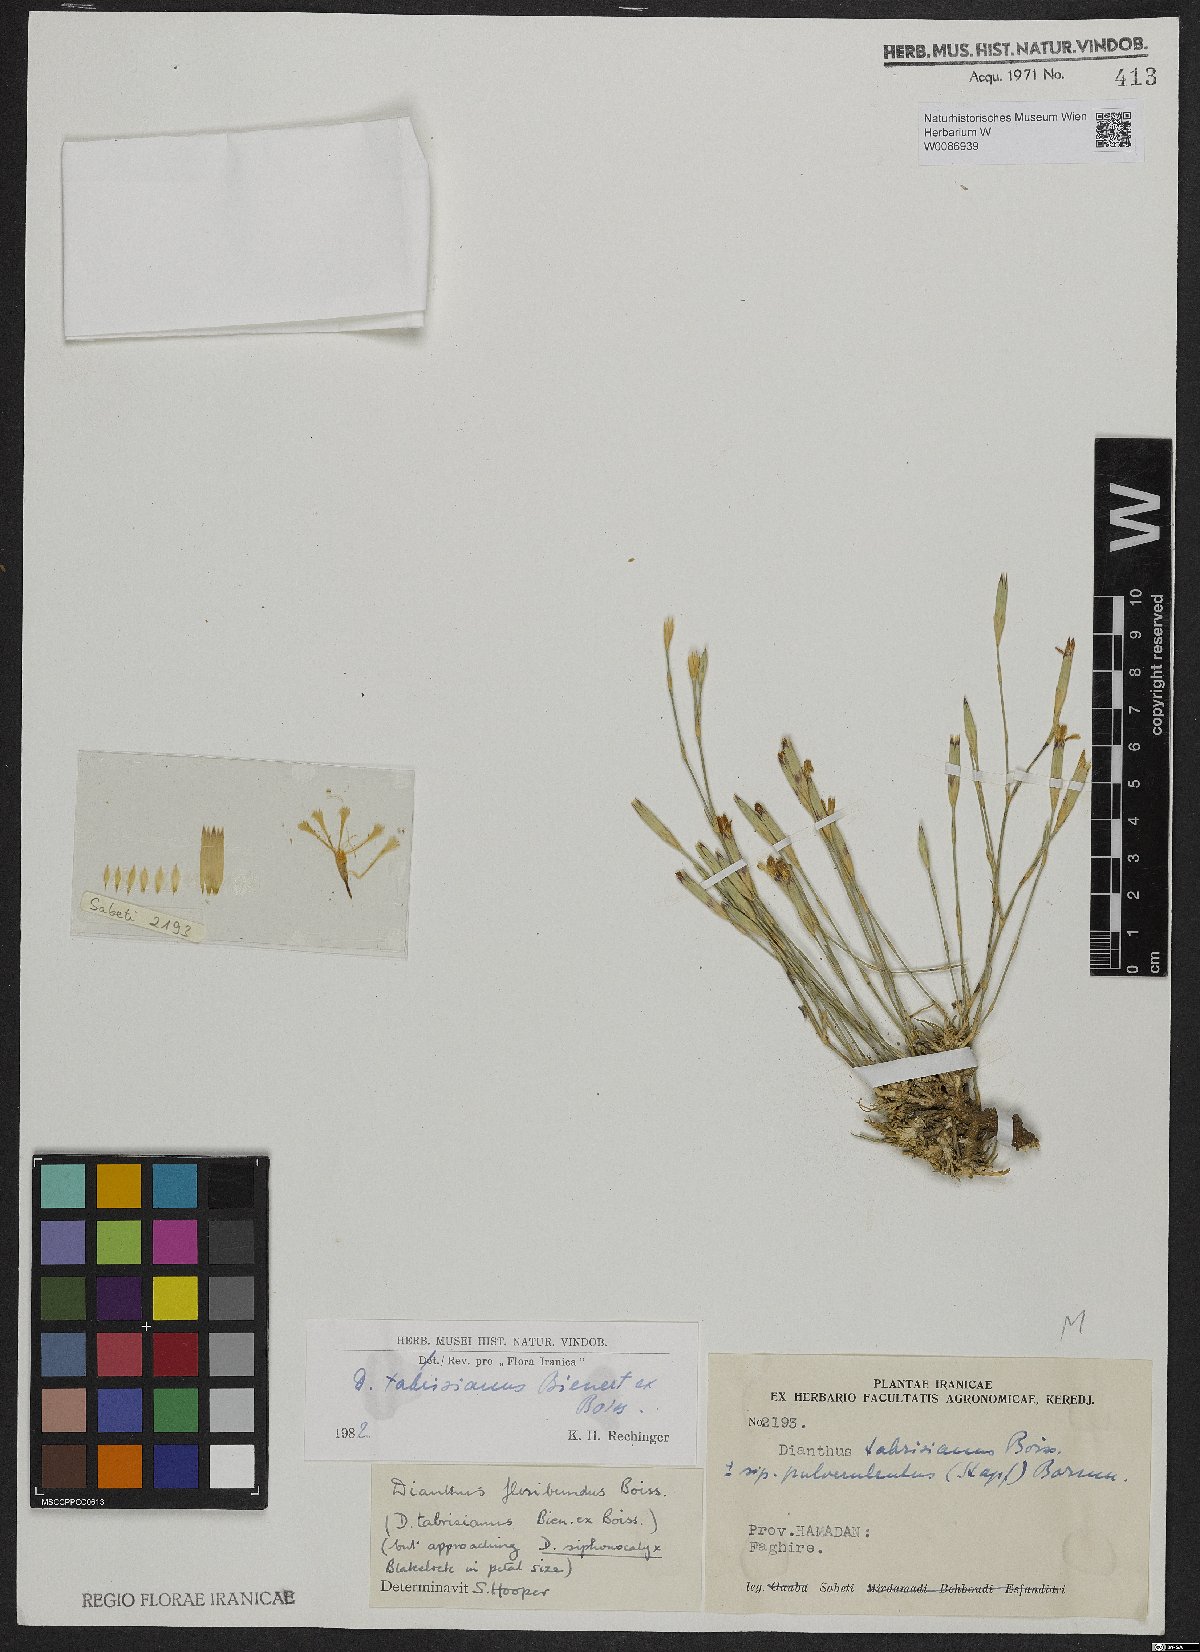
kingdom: Plantae
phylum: Tracheophyta
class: Magnoliopsida
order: Caryophyllales
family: Caryophyllaceae
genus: Dianthus
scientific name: Dianthus tabrisianus
